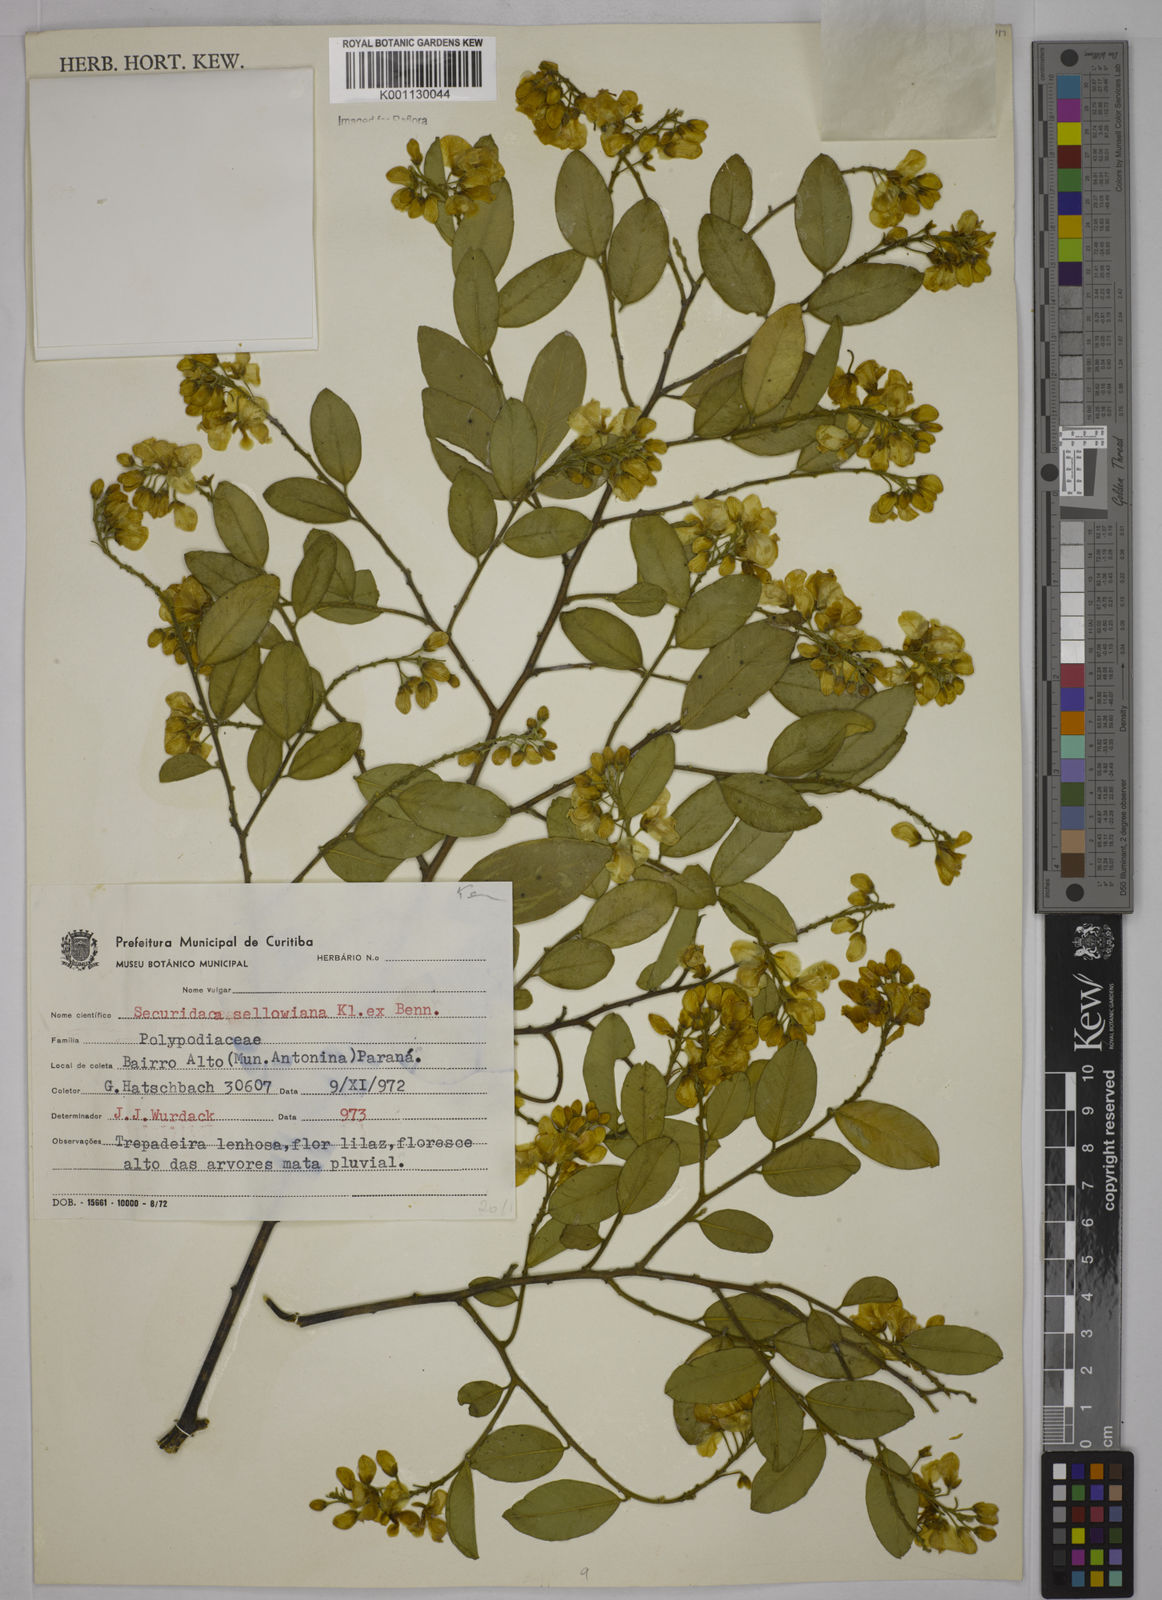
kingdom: Plantae
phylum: Tracheophyta
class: Magnoliopsida
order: Fabales
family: Polygalaceae
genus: Securidaca
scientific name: Securidaca
